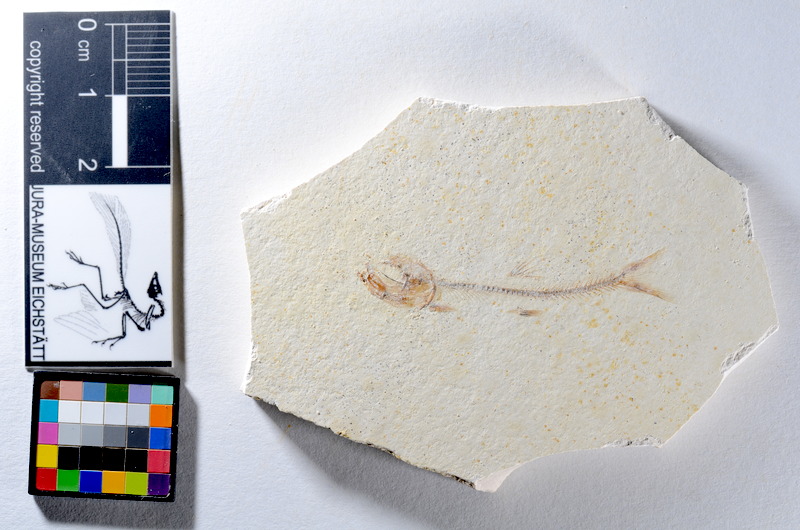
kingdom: Animalia
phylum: Chordata
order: Salmoniformes
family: Orthogonikleithridae
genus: Orthogonikleithrus
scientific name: Orthogonikleithrus hoelli
